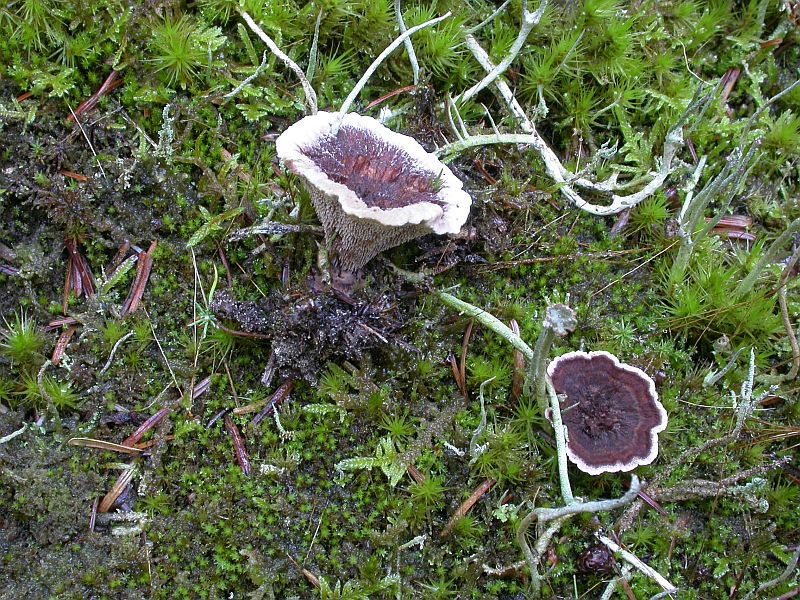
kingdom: Fungi
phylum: Basidiomycota
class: Agaricomycetes
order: Thelephorales
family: Bankeraceae
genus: Hydnellum
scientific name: Hydnellum concrescens
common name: bæltet korkpigsvamp
